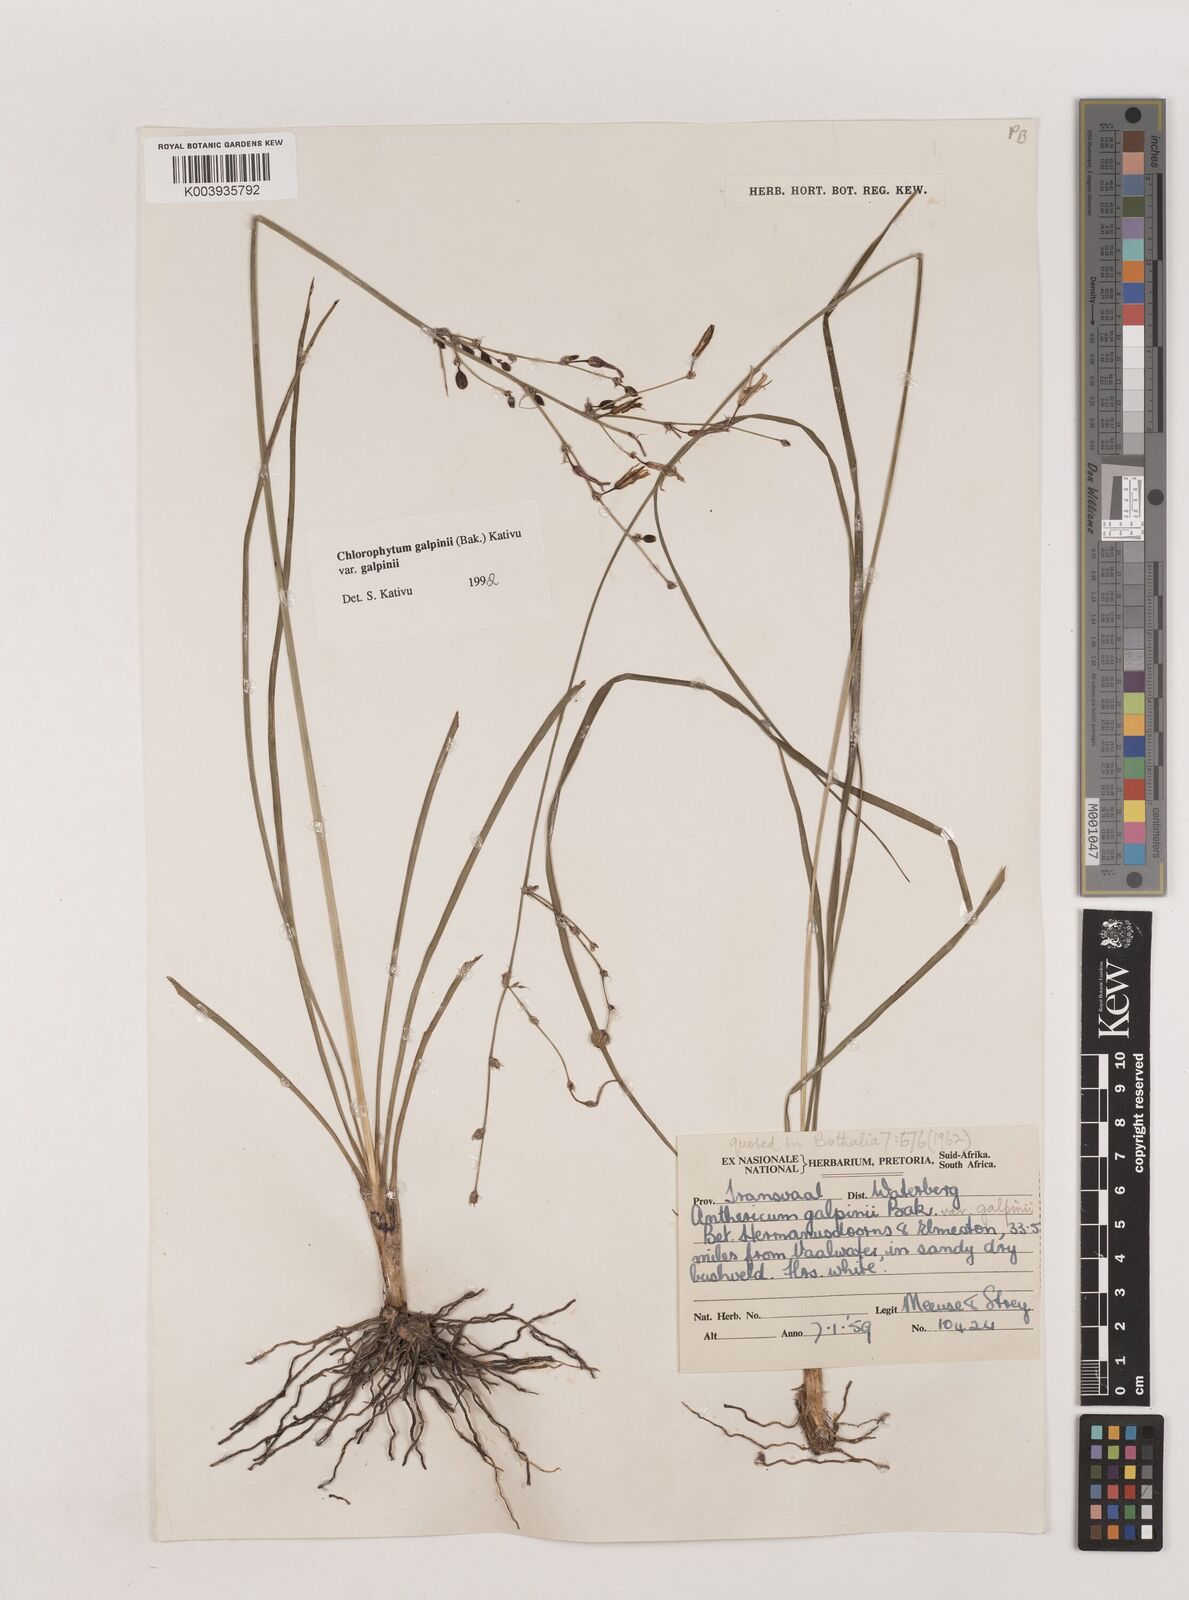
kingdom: Plantae
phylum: Tracheophyta
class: Liliopsida
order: Asparagales
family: Asparagaceae
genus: Chlorophytum
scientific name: Chlorophytum galpinii
